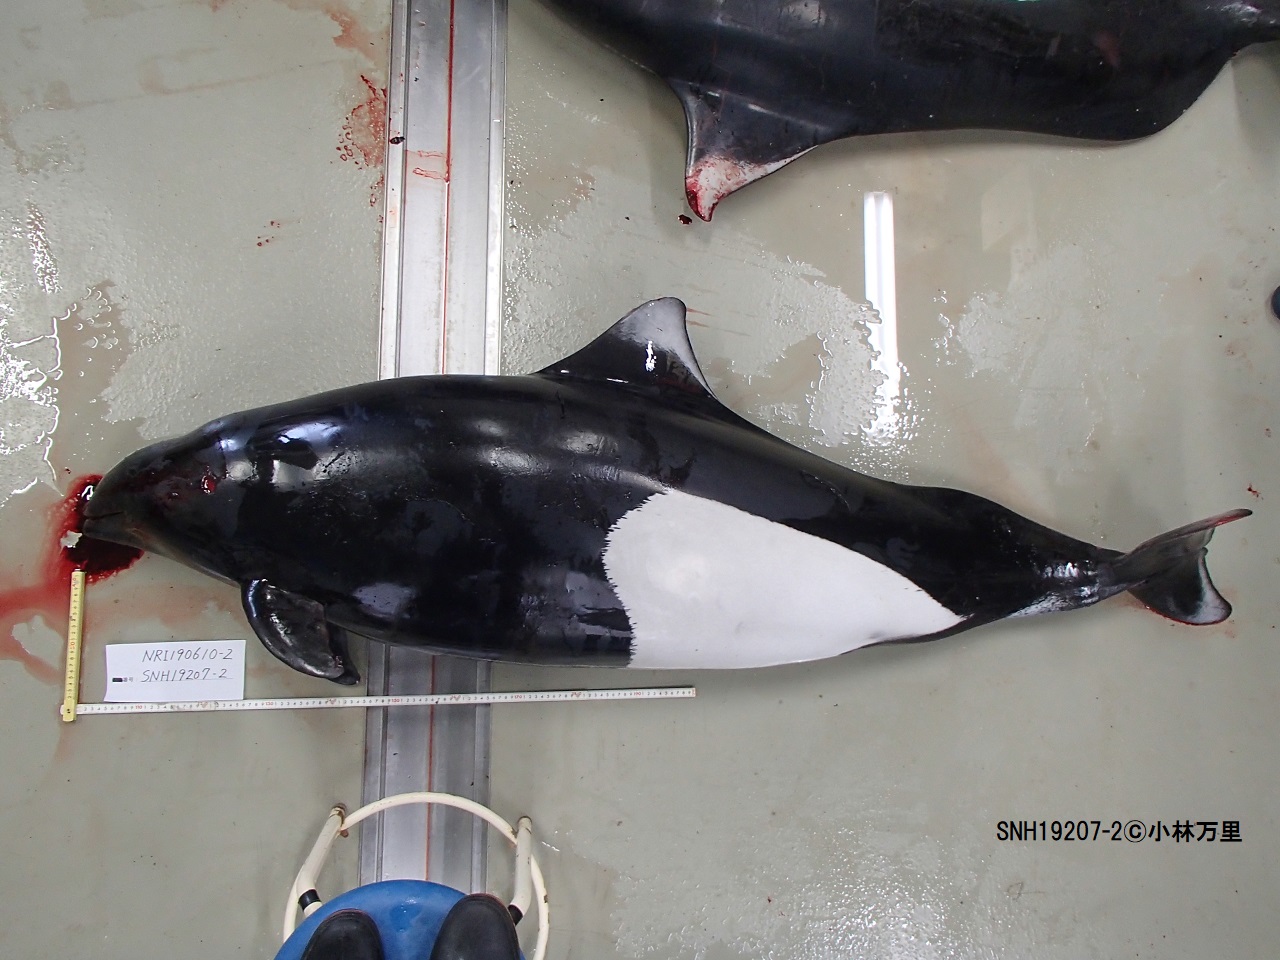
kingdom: Animalia
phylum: Chordata
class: Mammalia
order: Cetacea
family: Phocoenidae
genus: Phocoenoides
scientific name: Phocoenoides dalli
